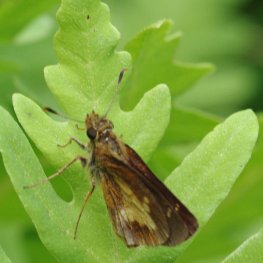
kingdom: Animalia
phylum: Arthropoda
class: Insecta
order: Lepidoptera
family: Hesperiidae
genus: Poanes
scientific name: Poanes massasoit
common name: Mulberry Wing
